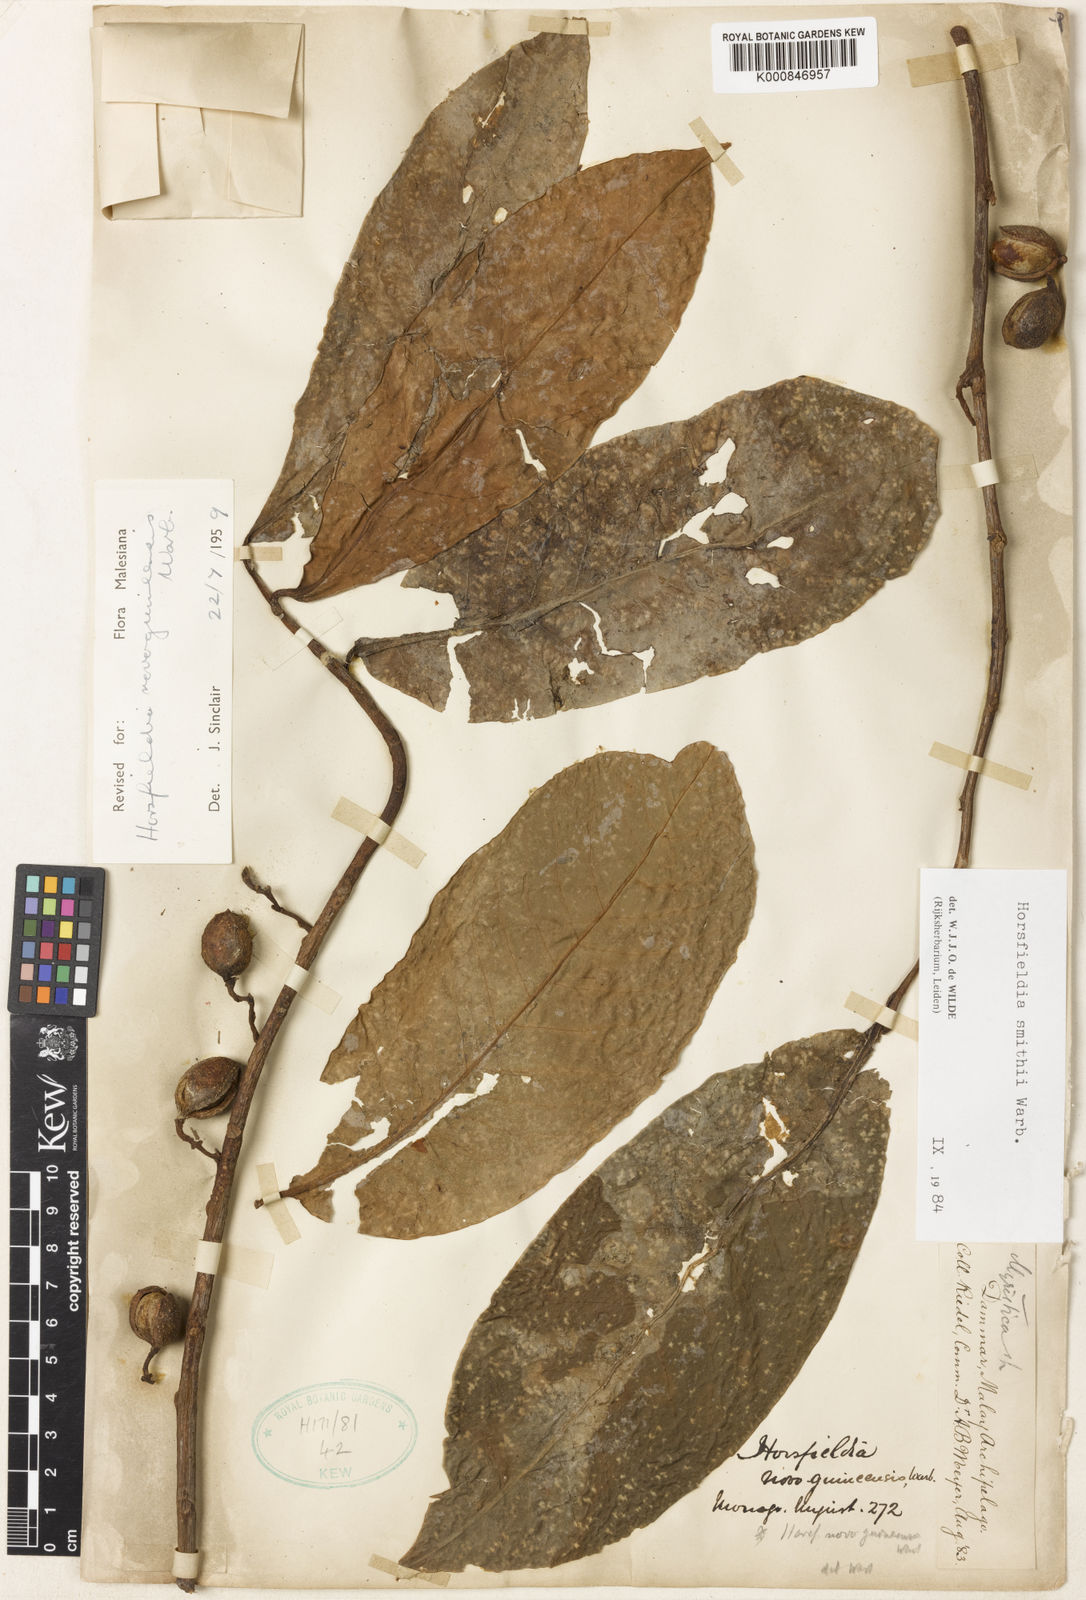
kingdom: Plantae
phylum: Tracheophyta
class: Magnoliopsida
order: Magnoliales
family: Myristicaceae
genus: Horsfieldia
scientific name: Horsfieldia smithii
